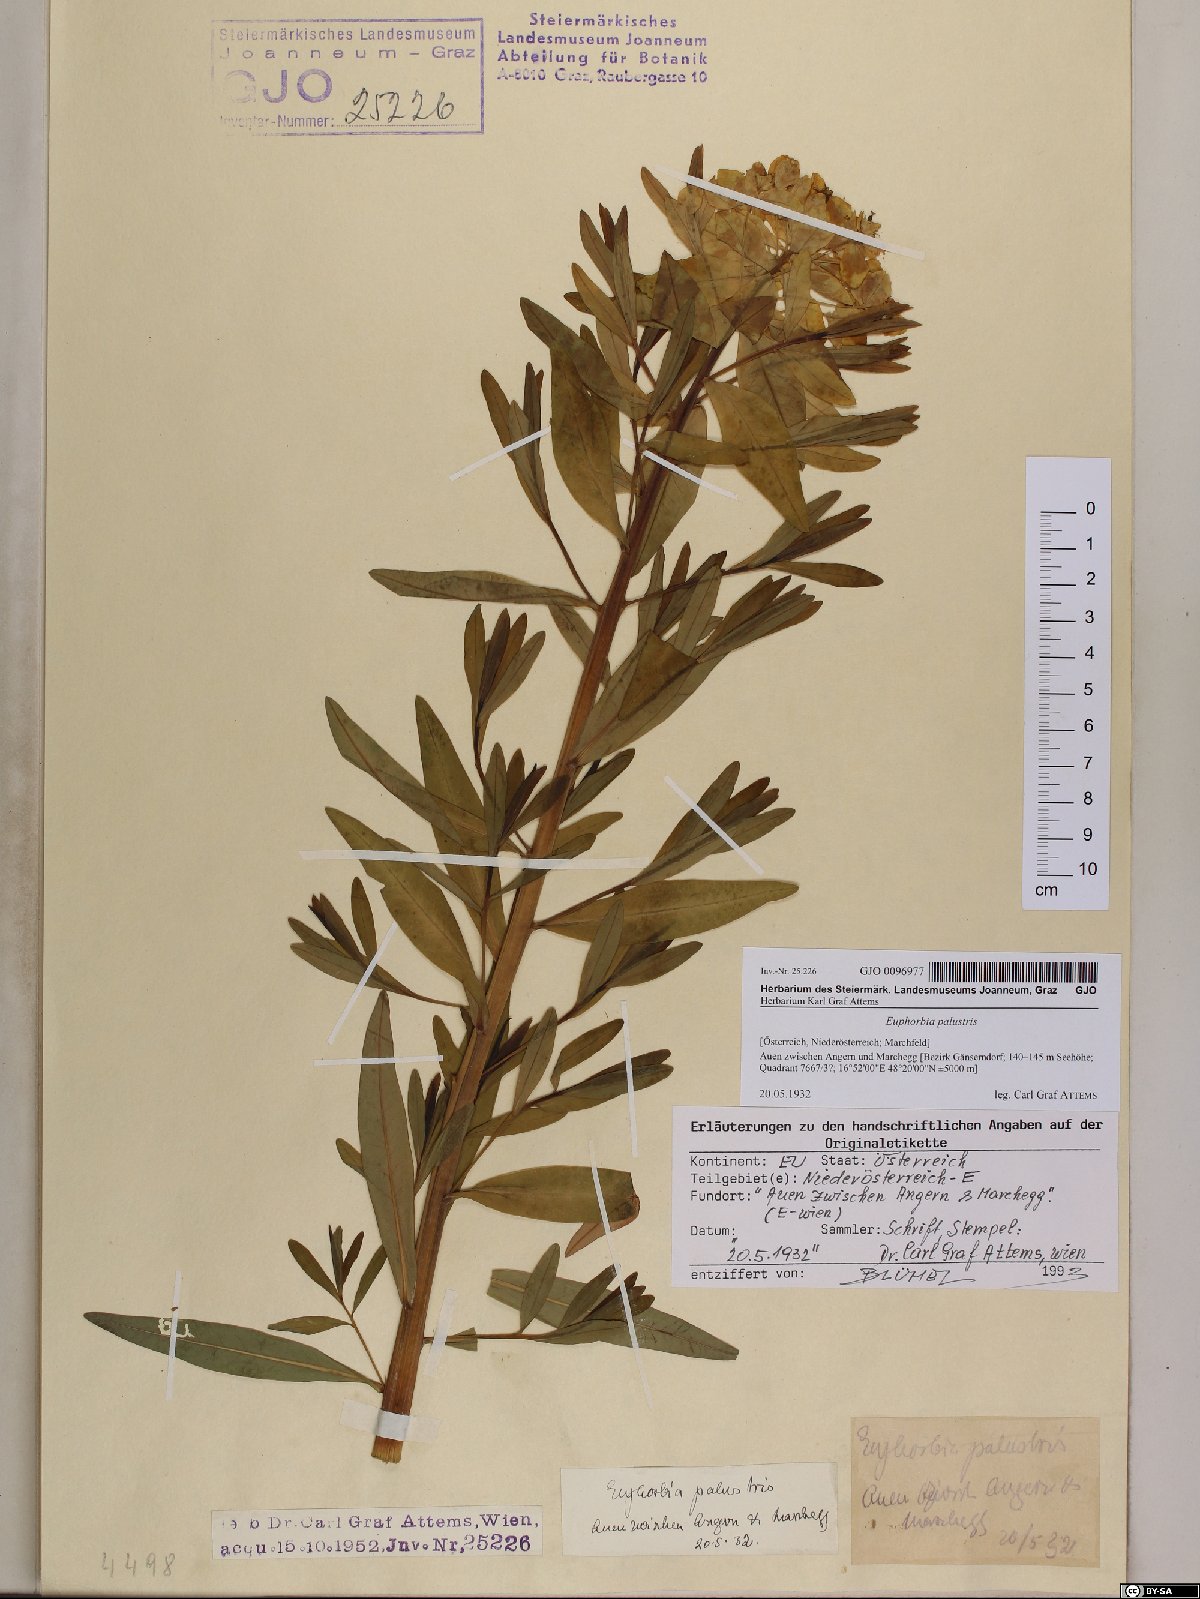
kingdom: Plantae
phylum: Tracheophyta
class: Magnoliopsida
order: Malpighiales
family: Euphorbiaceae
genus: Euphorbia
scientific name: Euphorbia palustris
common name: Marsh spurge
